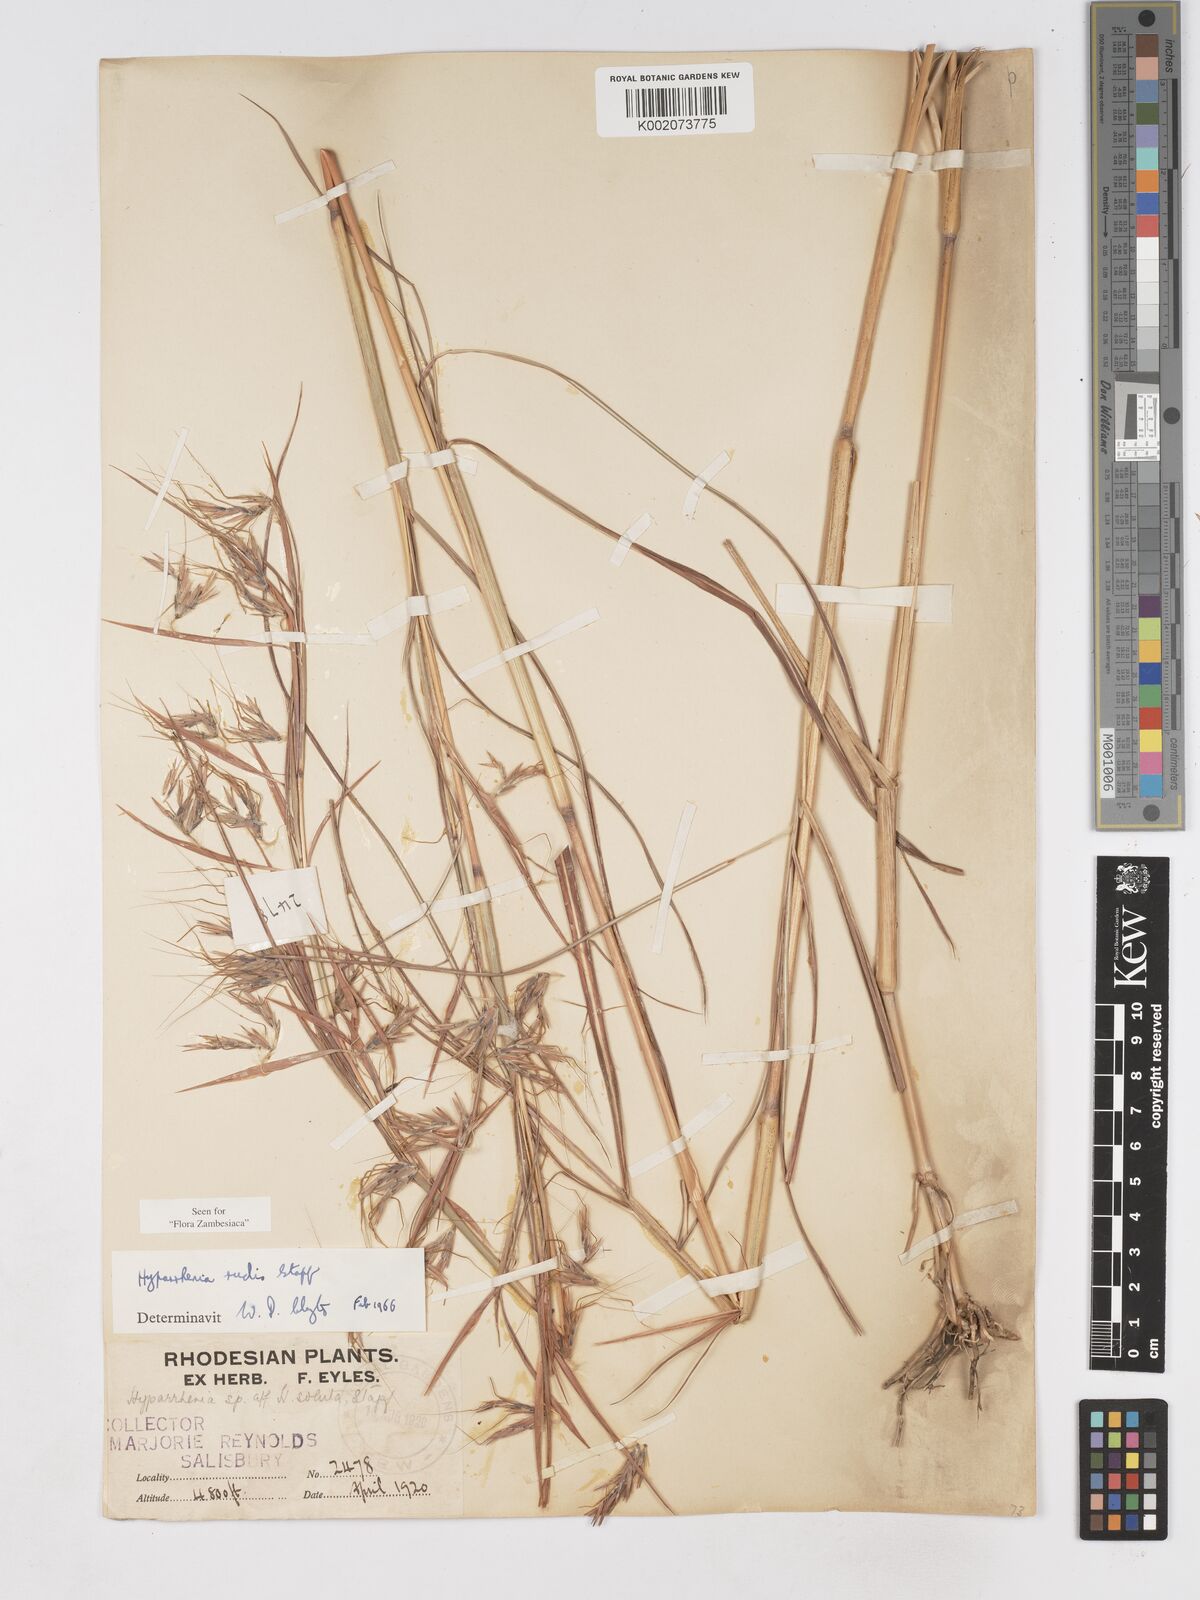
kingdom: Plantae
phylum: Tracheophyta
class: Liliopsida
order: Poales
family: Poaceae
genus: Hyparrhenia
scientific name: Hyparrhenia rudis
